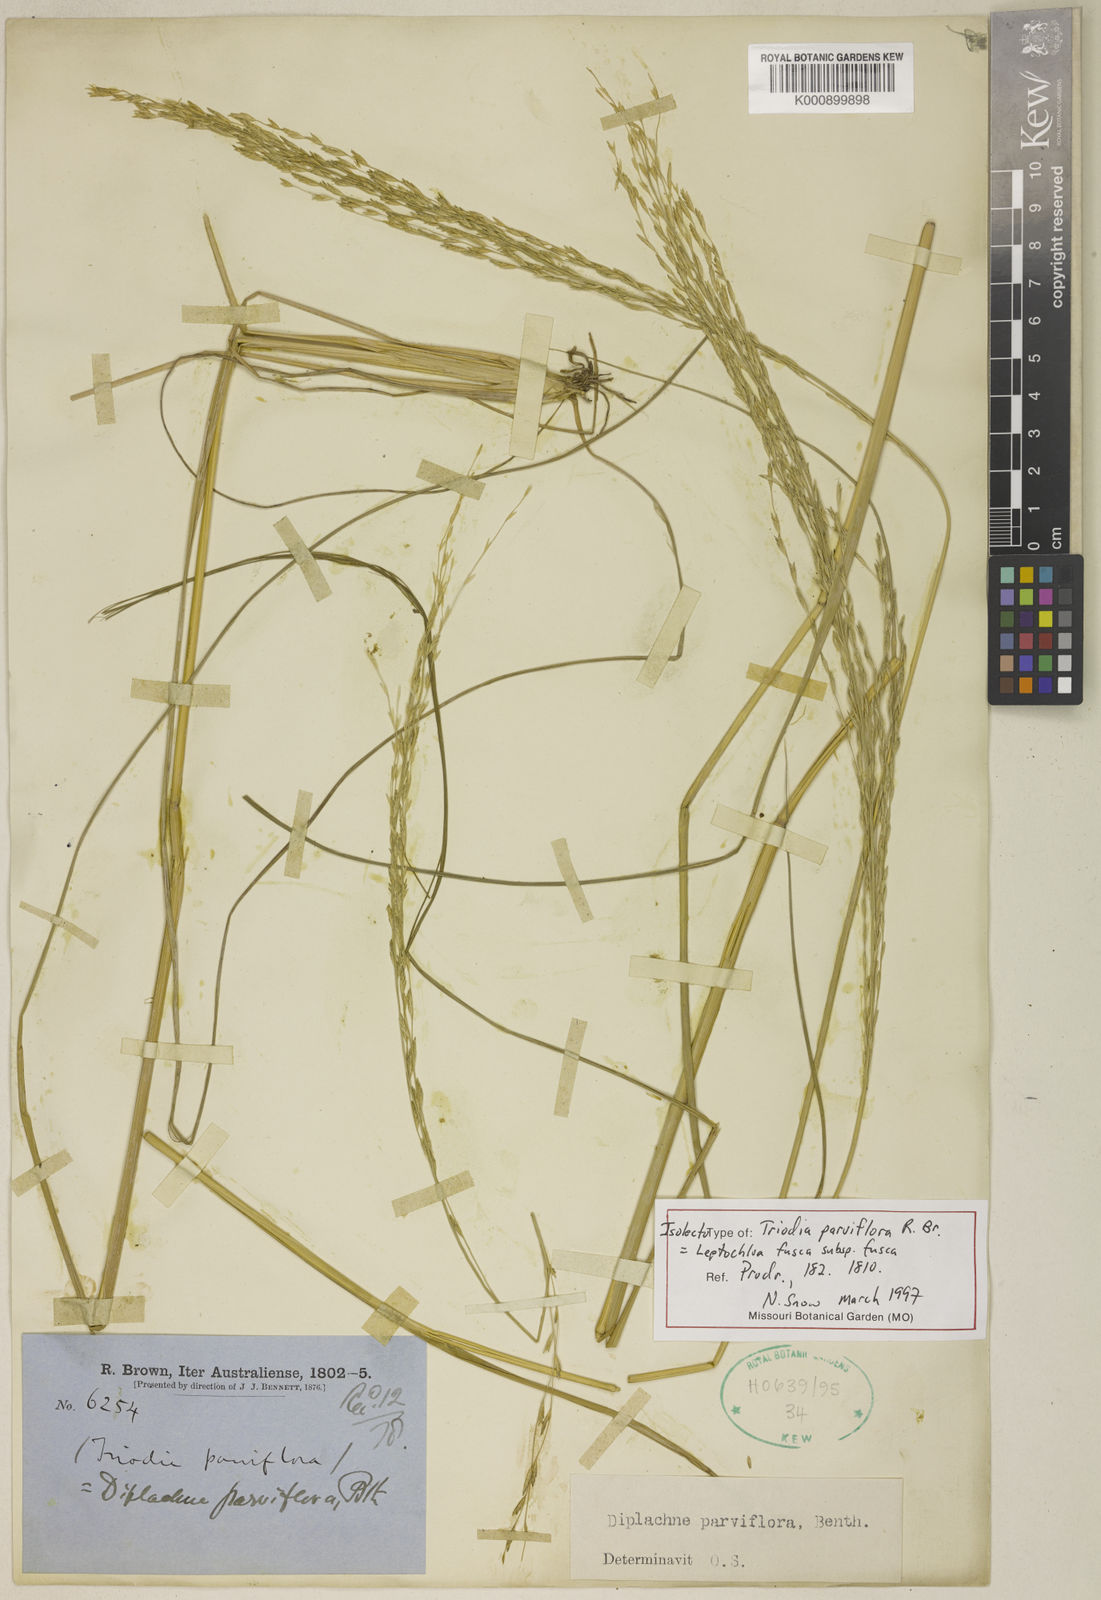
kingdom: Plantae
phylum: Tracheophyta
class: Liliopsida
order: Poales
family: Poaceae
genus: Diplachne
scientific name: Diplachne fusca
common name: Brown beetle grass
